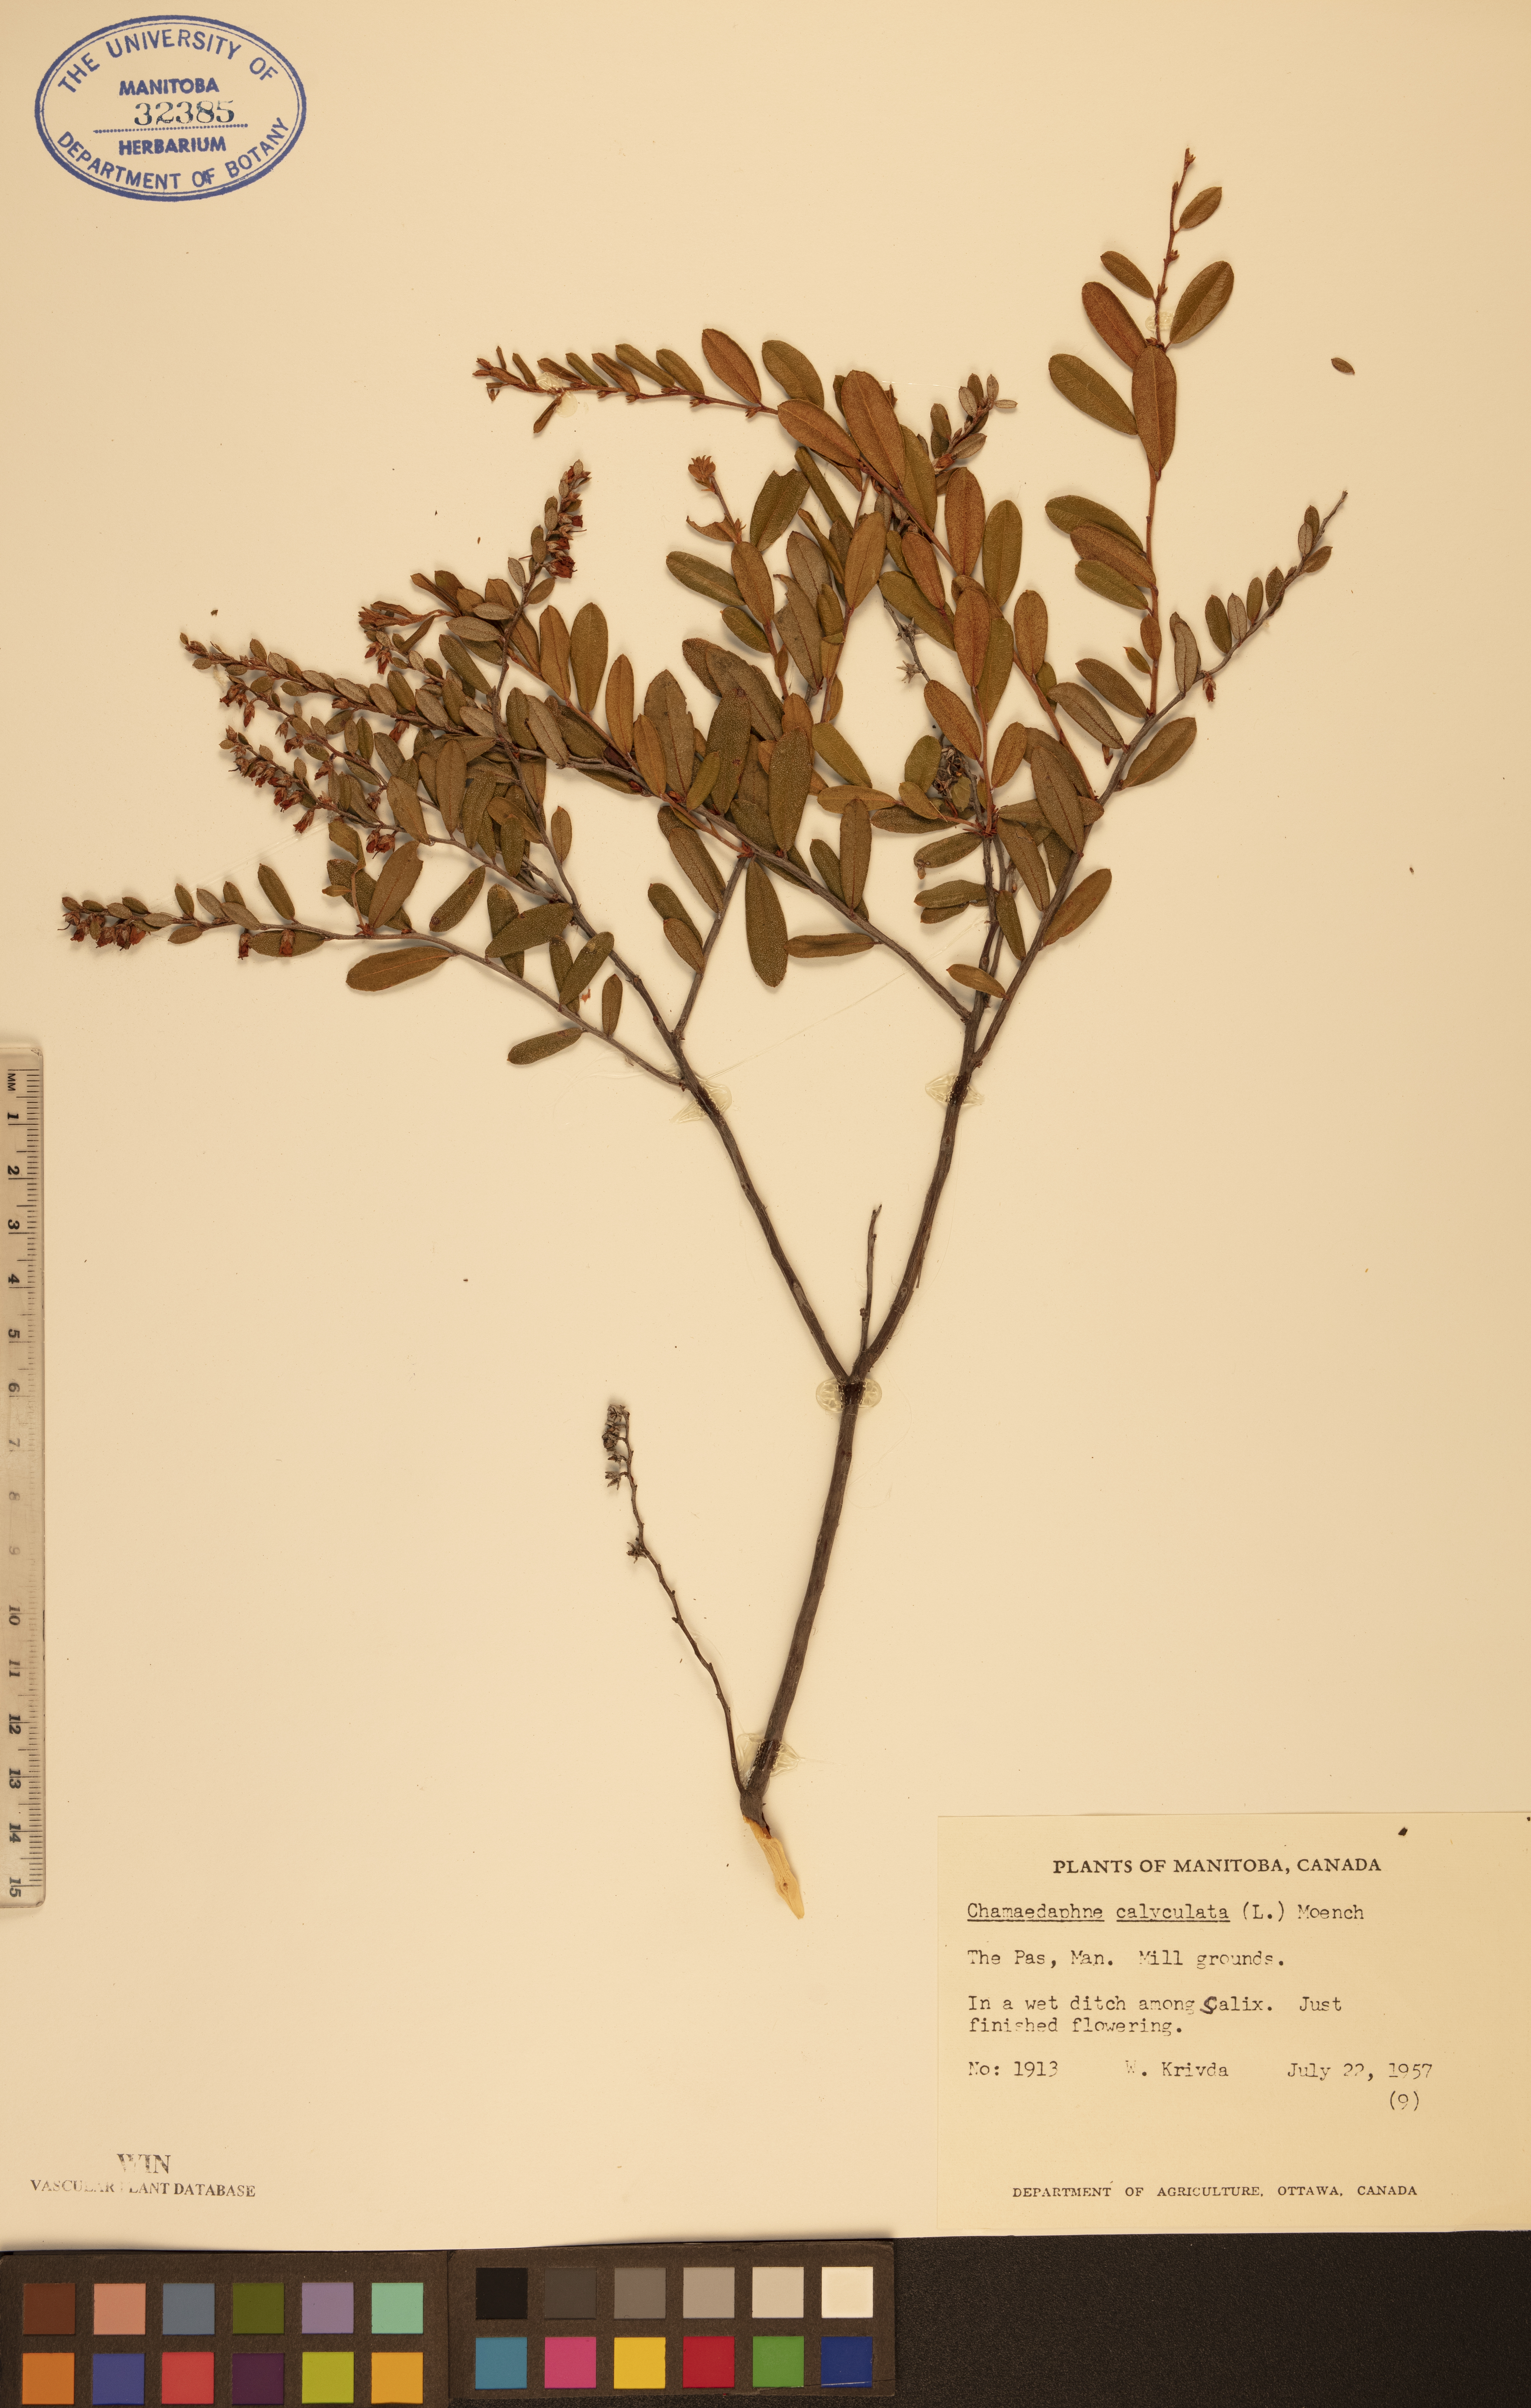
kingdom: Plantae
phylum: Tracheophyta
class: Magnoliopsida
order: Ericales
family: Ericaceae
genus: Chamaedaphne
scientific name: Chamaedaphne calyculata
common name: Leatherleaf
